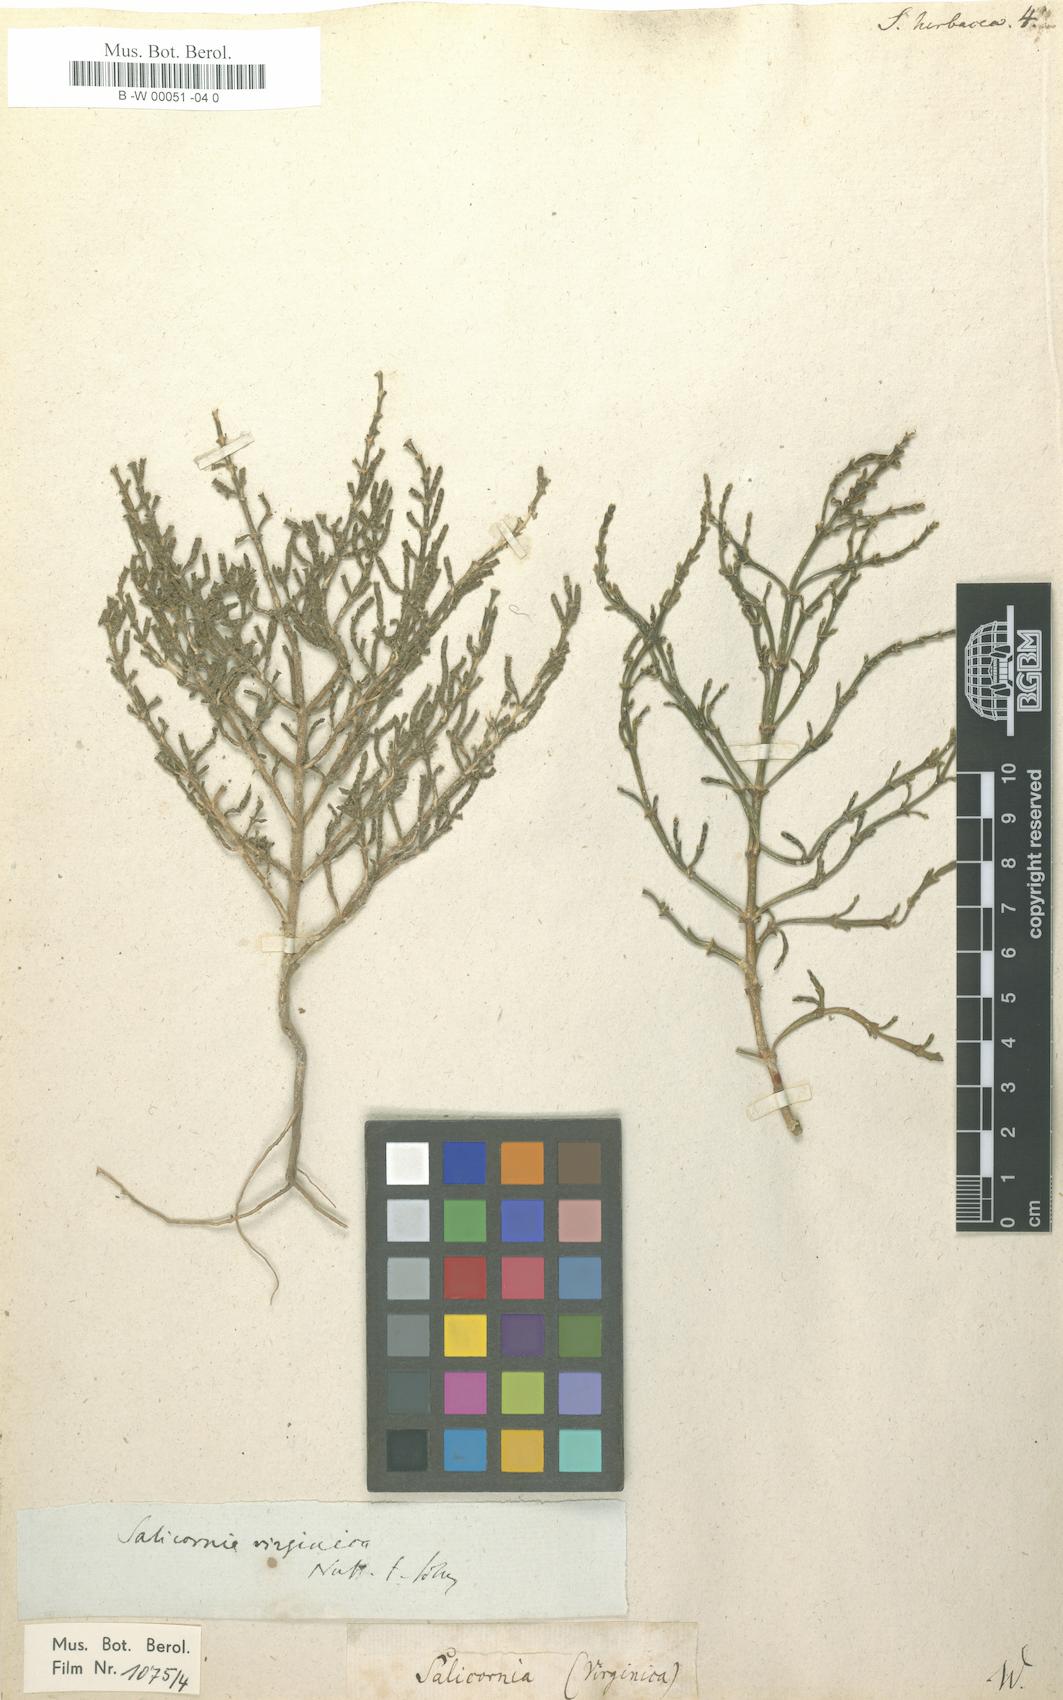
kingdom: Plantae
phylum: Tracheophyta
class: Magnoliopsida
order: Caryophyllales
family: Amaranthaceae
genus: Salicornia
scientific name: Salicornia europaea
